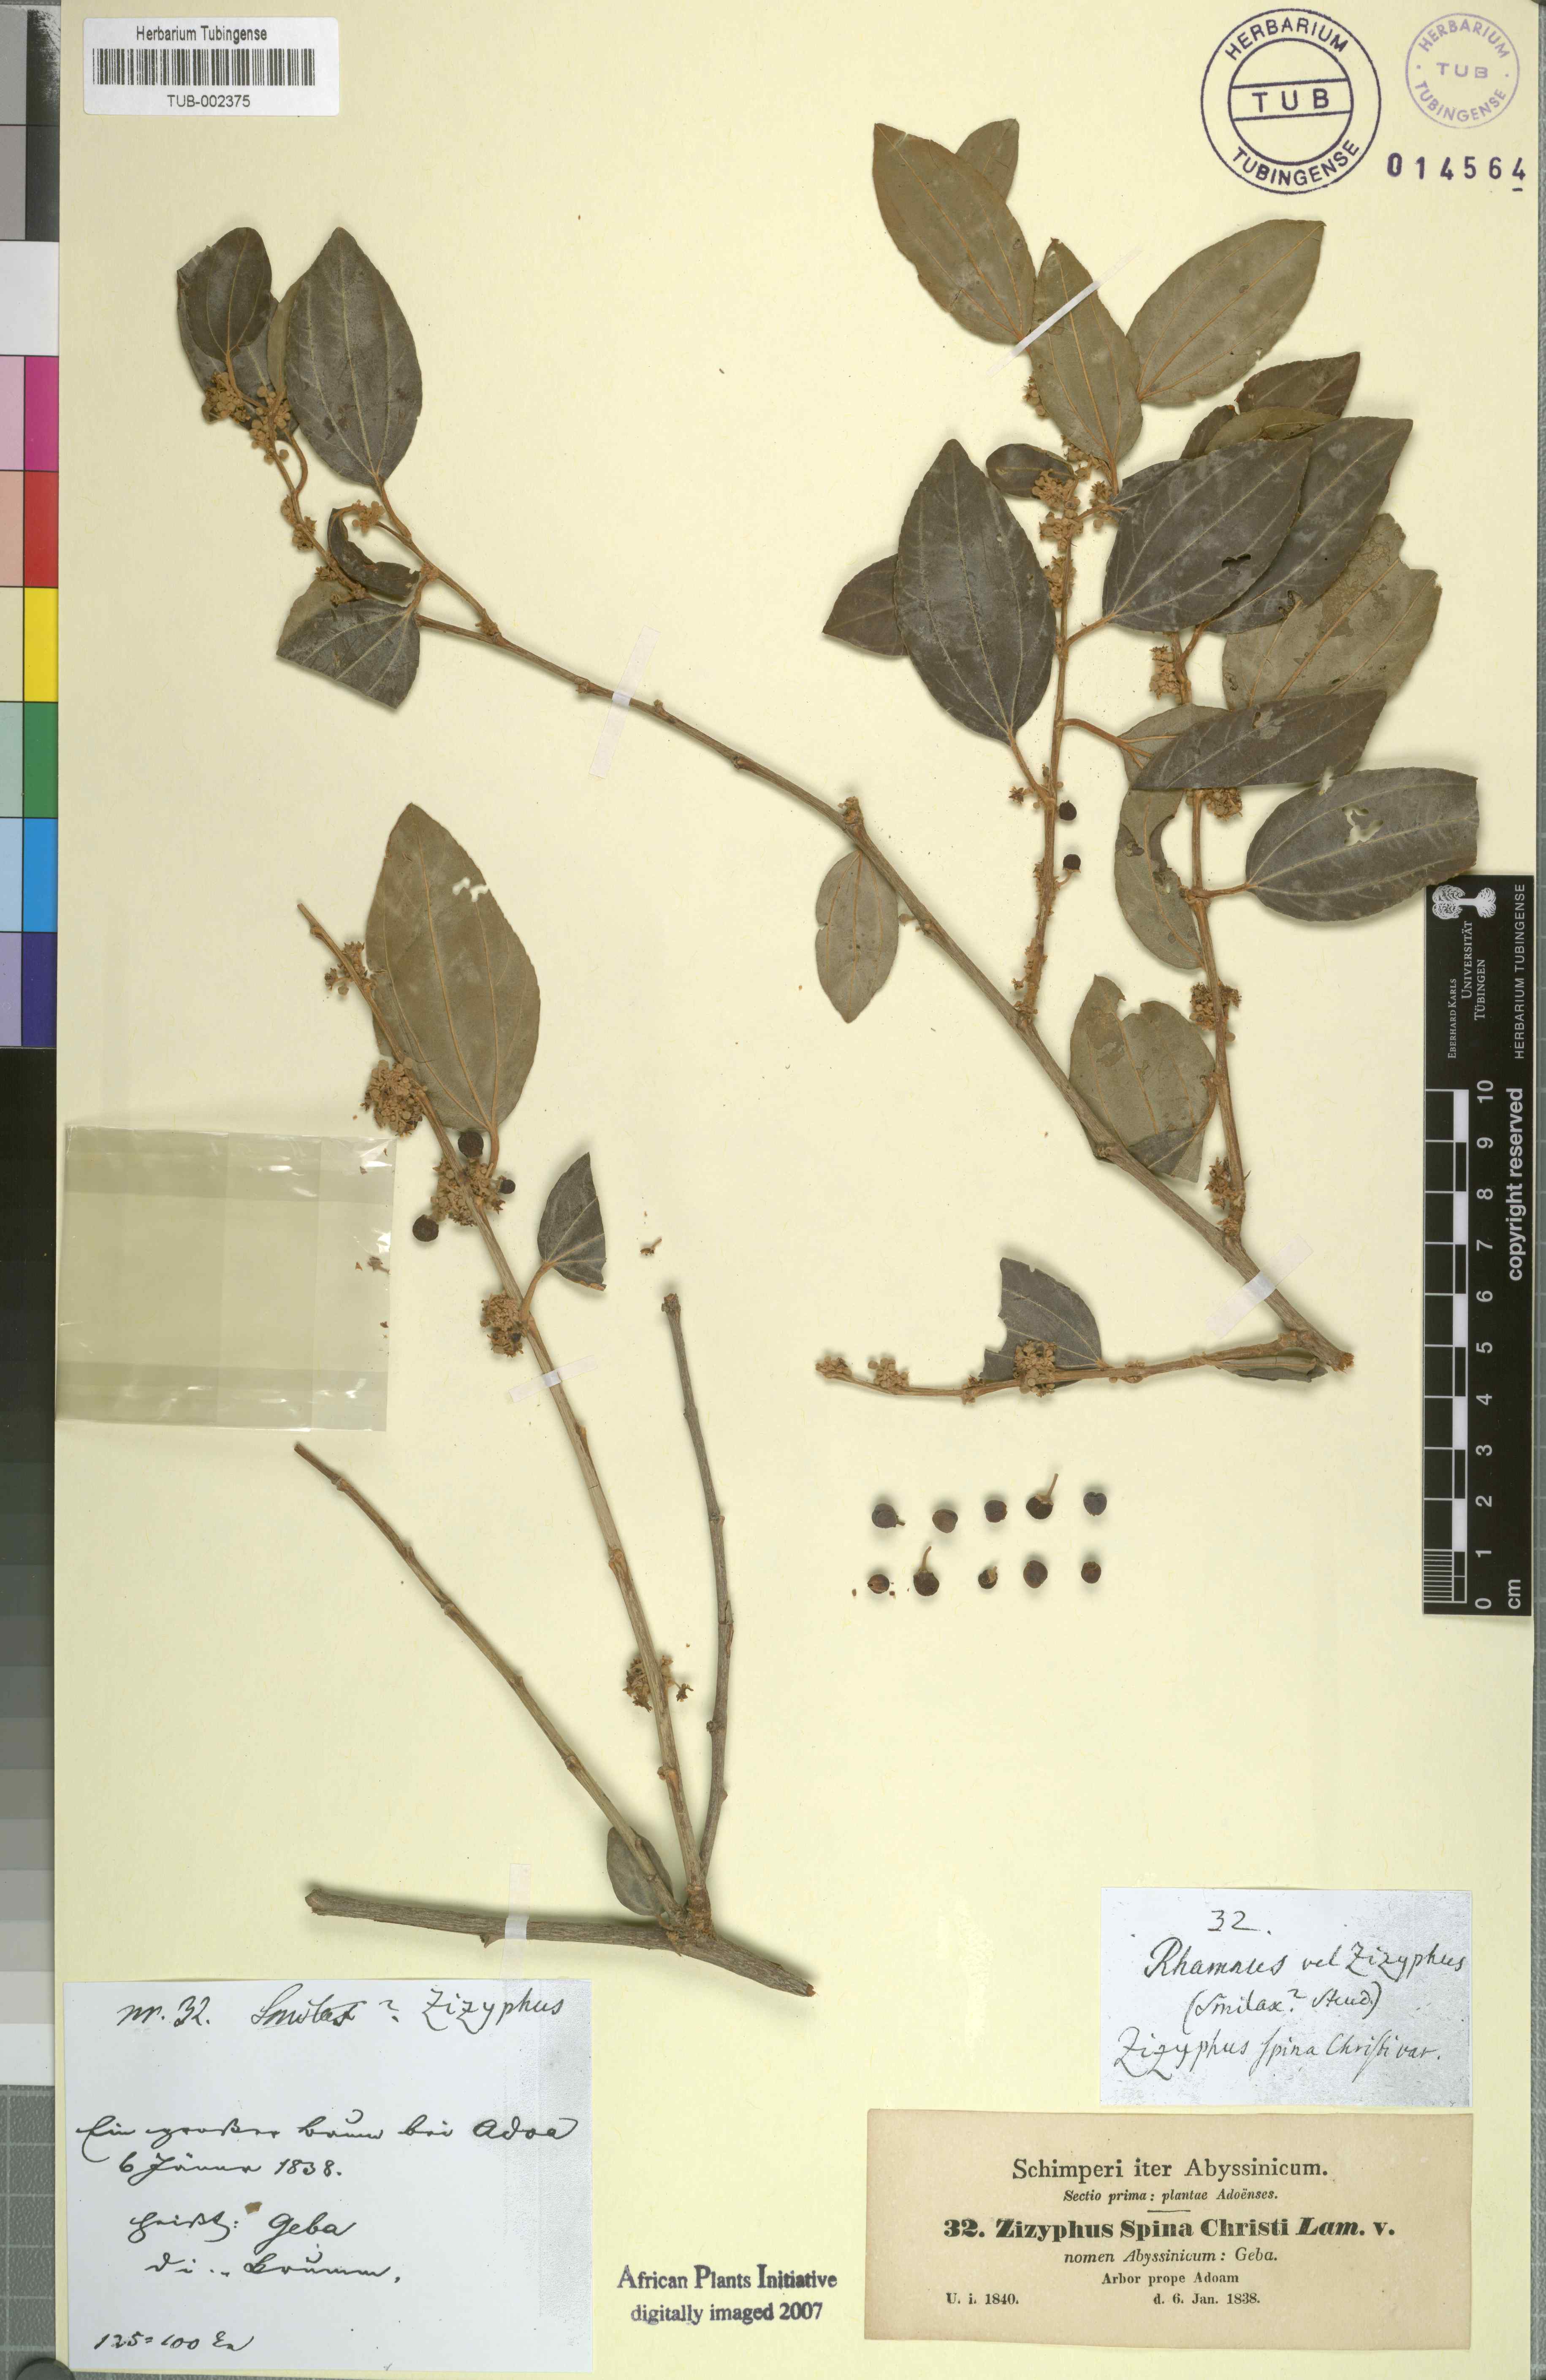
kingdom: Plantae
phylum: Tracheophyta
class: Magnoliopsida
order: Rosales
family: Rhamnaceae
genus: Ziziphus
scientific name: Ziziphus spina-christi
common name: Syrian christ-thorn
